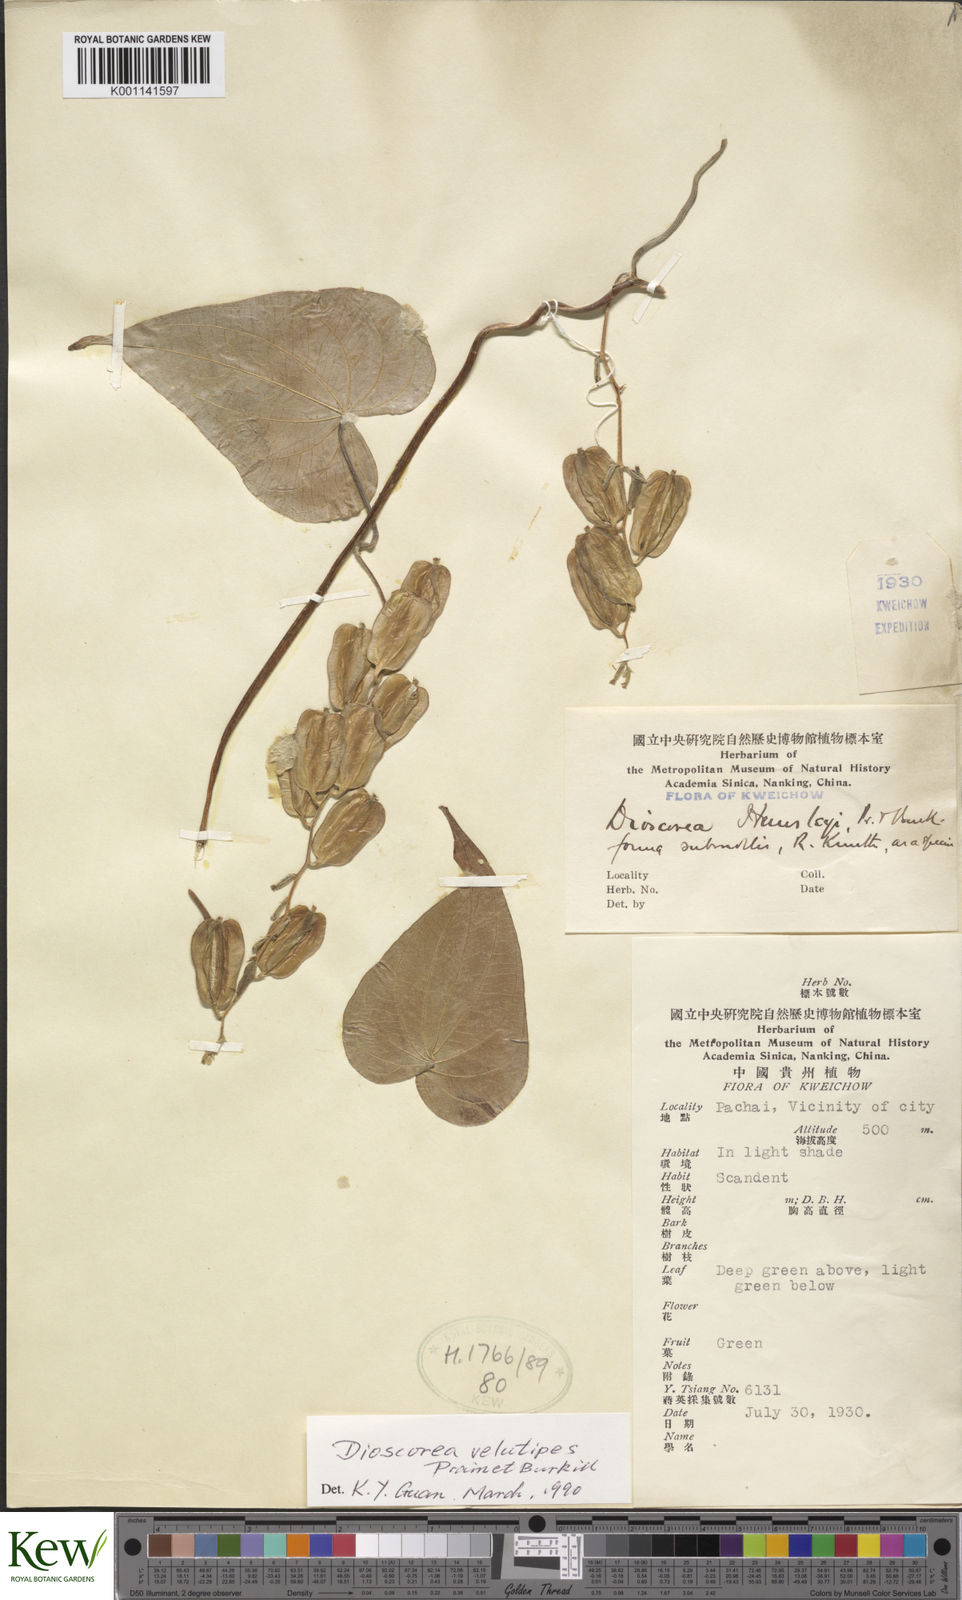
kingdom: Plantae
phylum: Tracheophyta
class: Liliopsida
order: Dioscoreales
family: Dioscoreaceae
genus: Dioscorea
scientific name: Dioscorea velutipes
